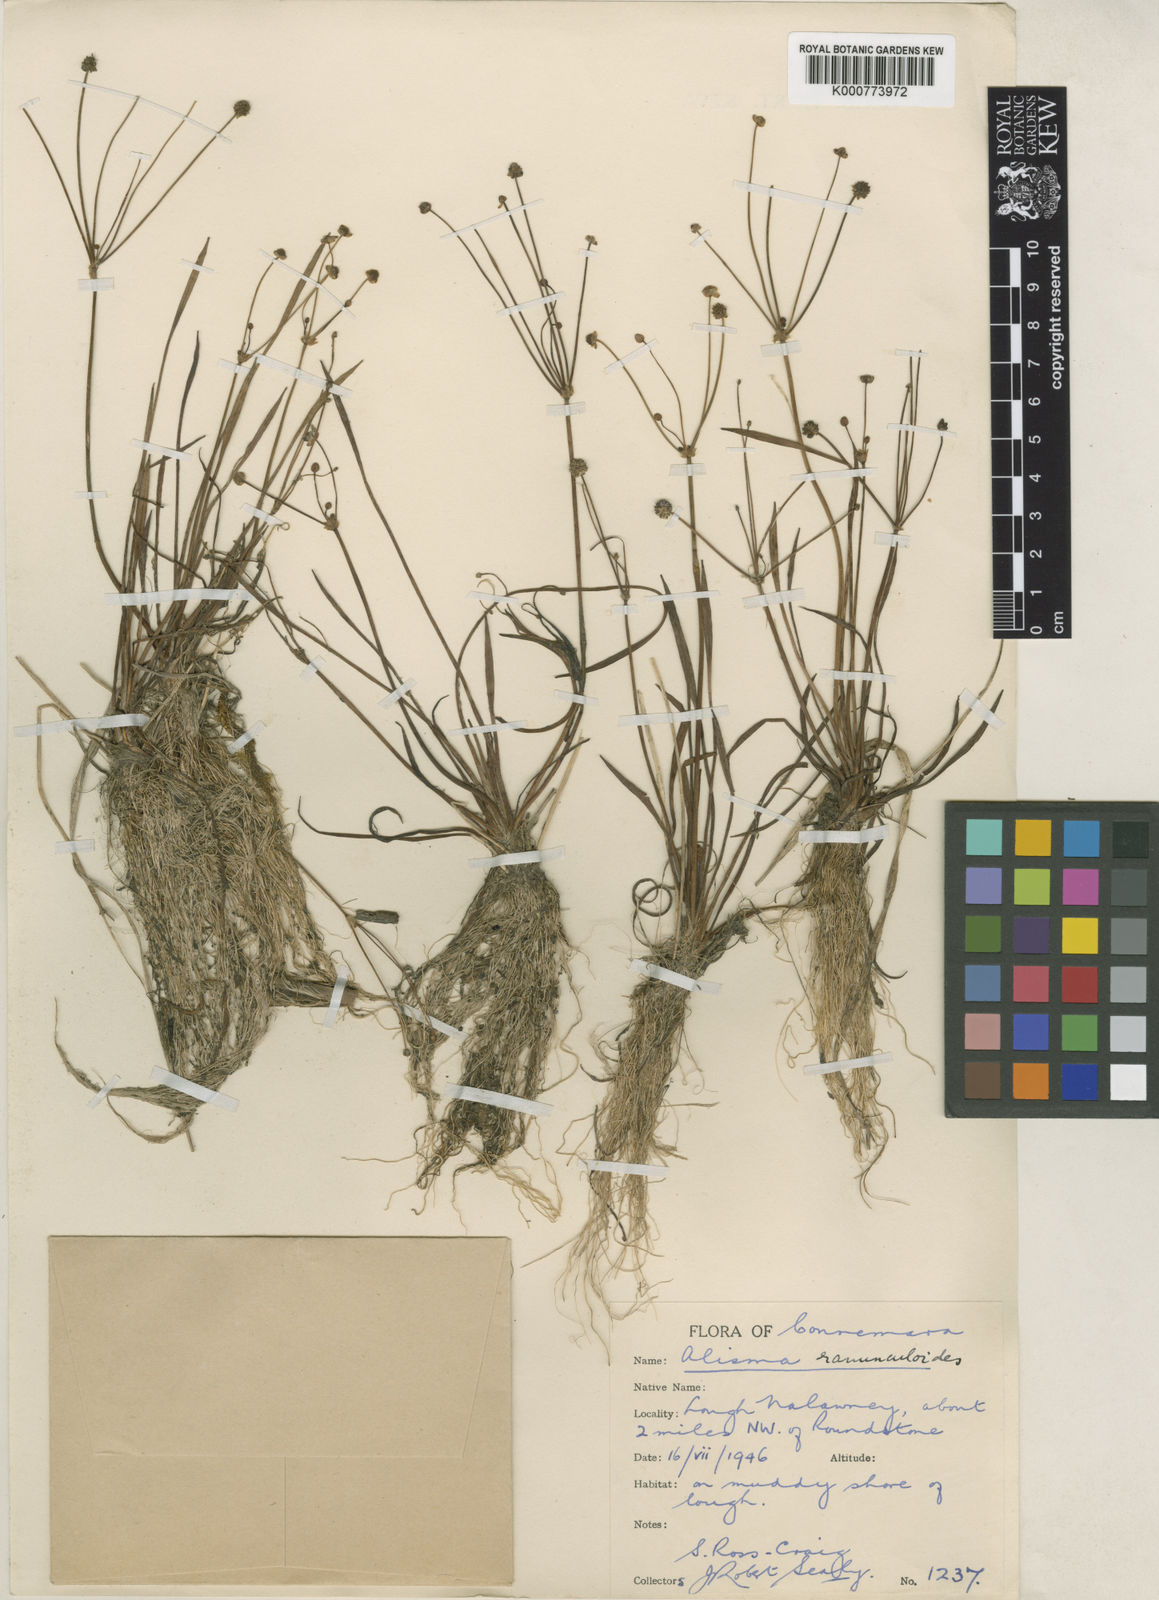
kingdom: Plantae
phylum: Tracheophyta
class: Liliopsida
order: Alismatales
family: Alismataceae
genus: Baldellia
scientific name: Baldellia ranunculoides
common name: Lesser water-plantain
